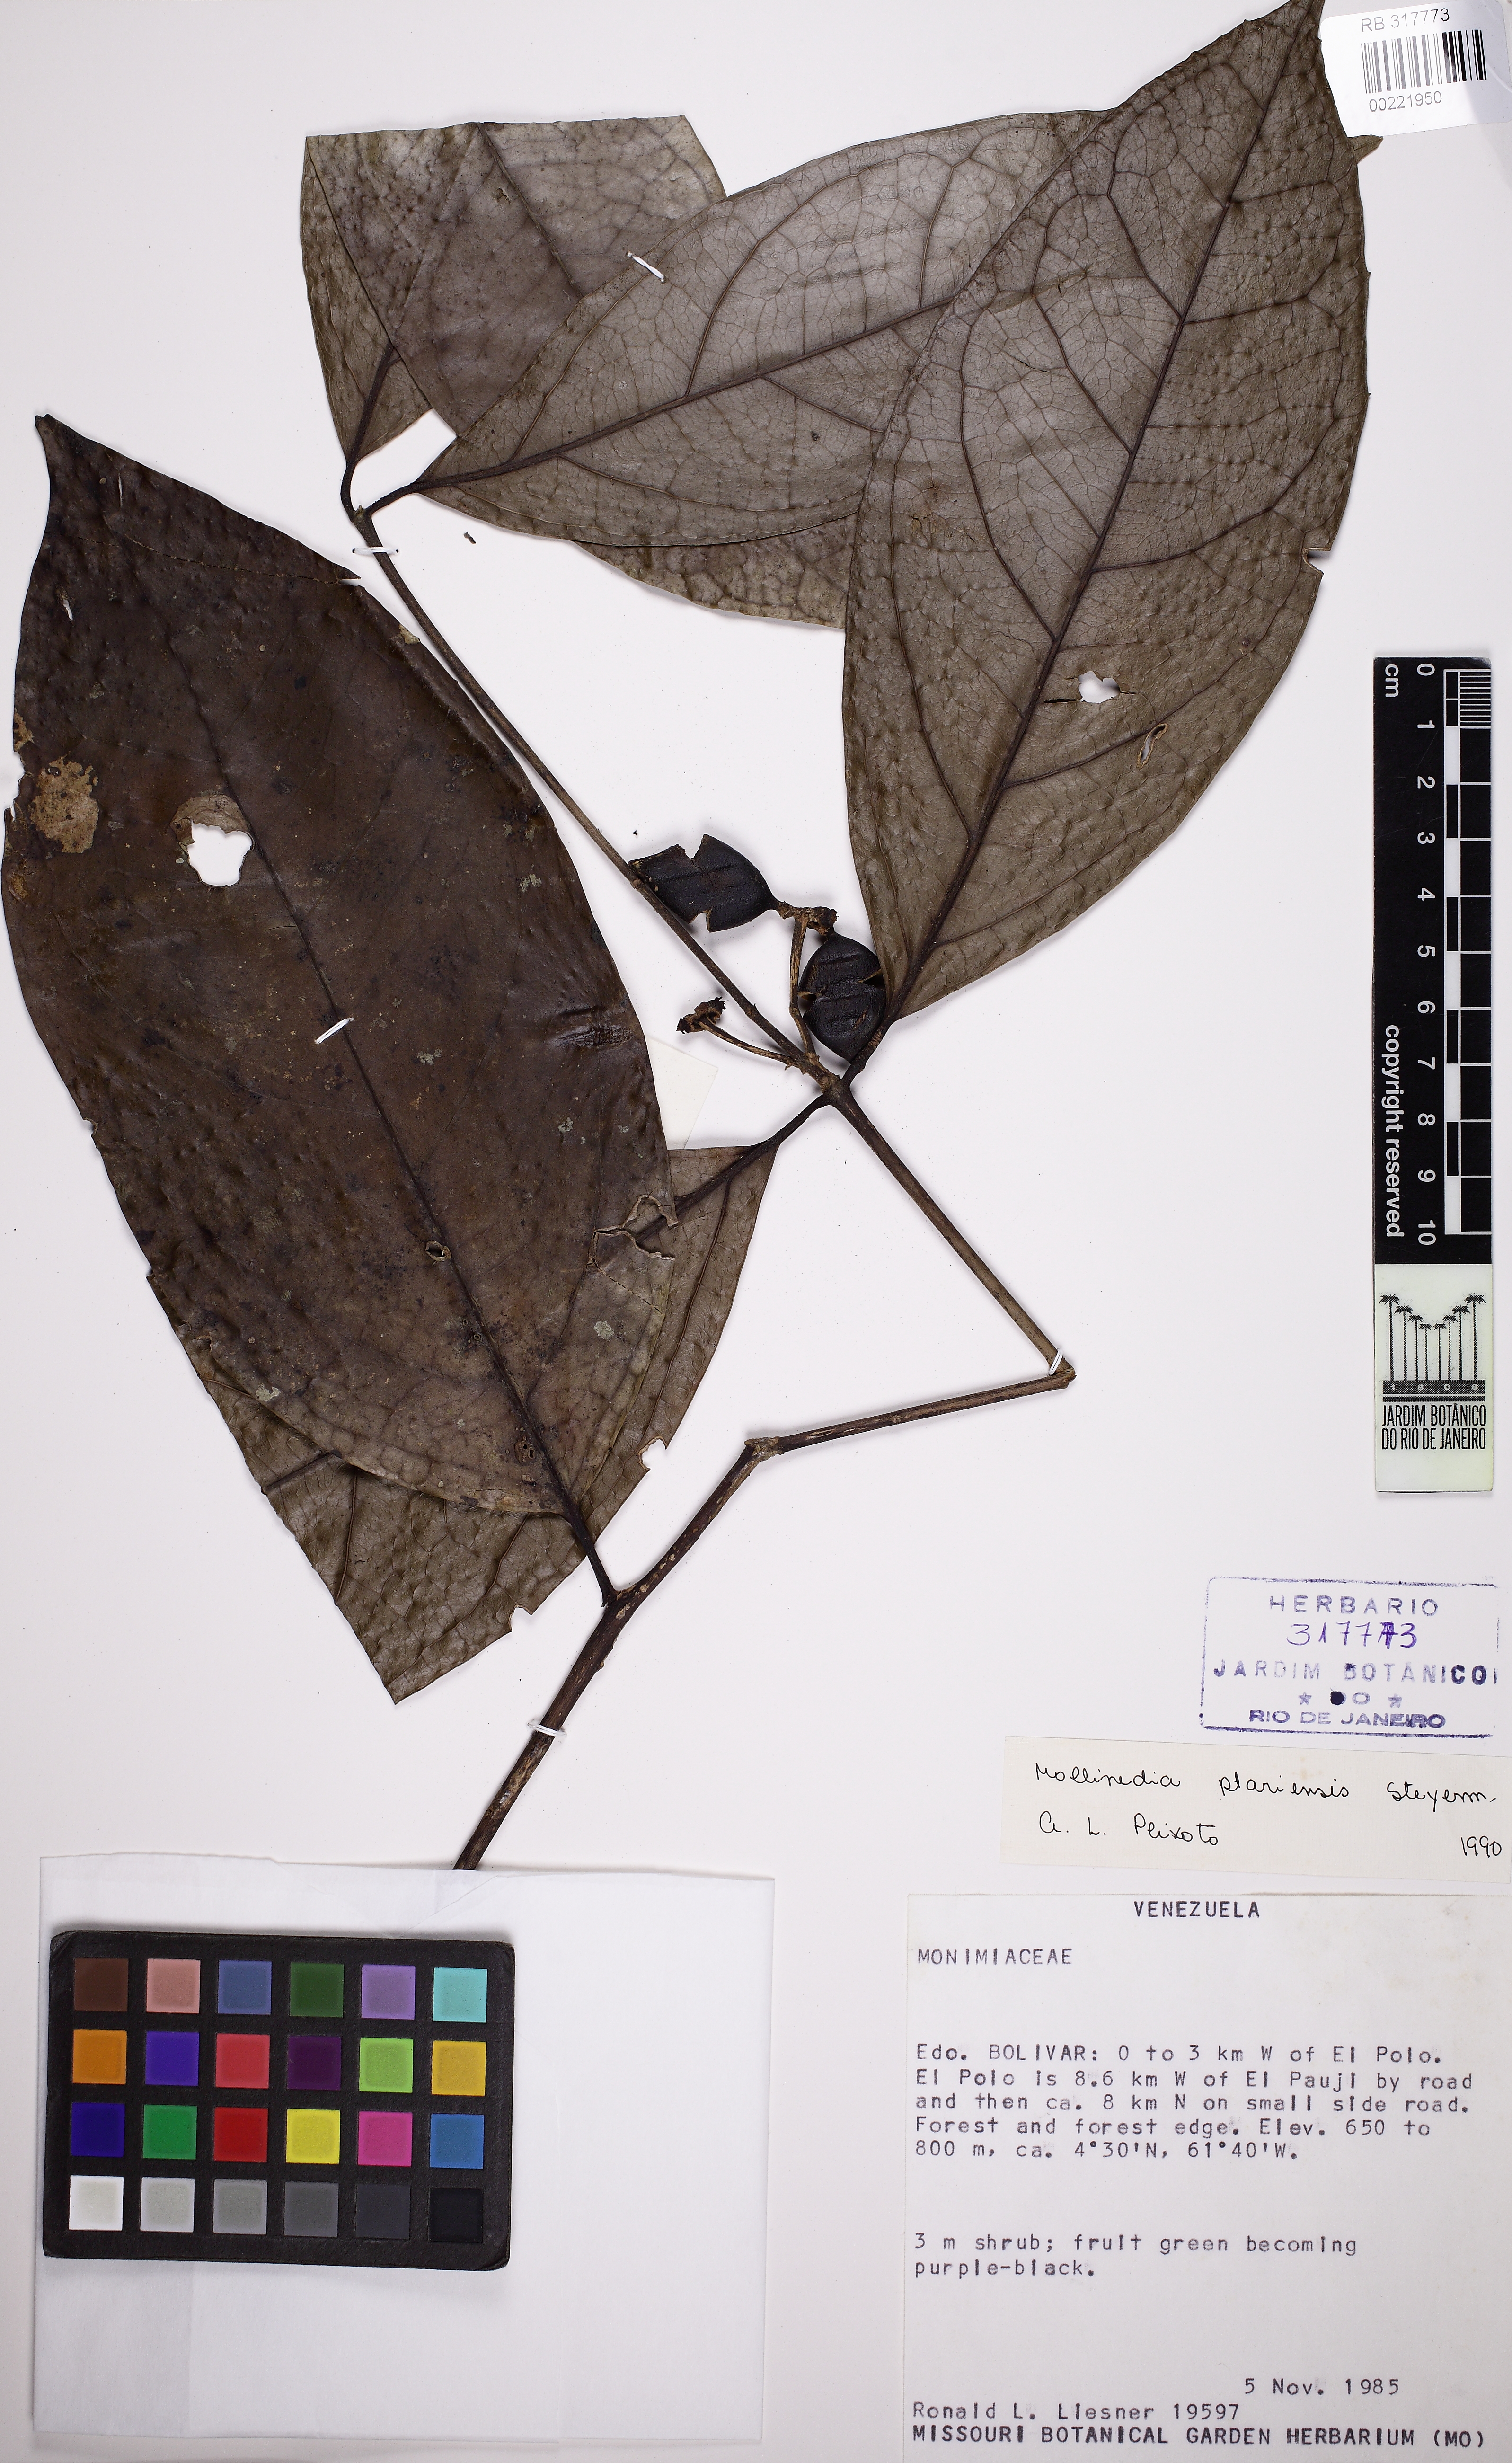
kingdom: Plantae
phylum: Tracheophyta
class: Magnoliopsida
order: Laurales
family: Monimiaceae
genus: Mollinedia
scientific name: Mollinedia ovata
